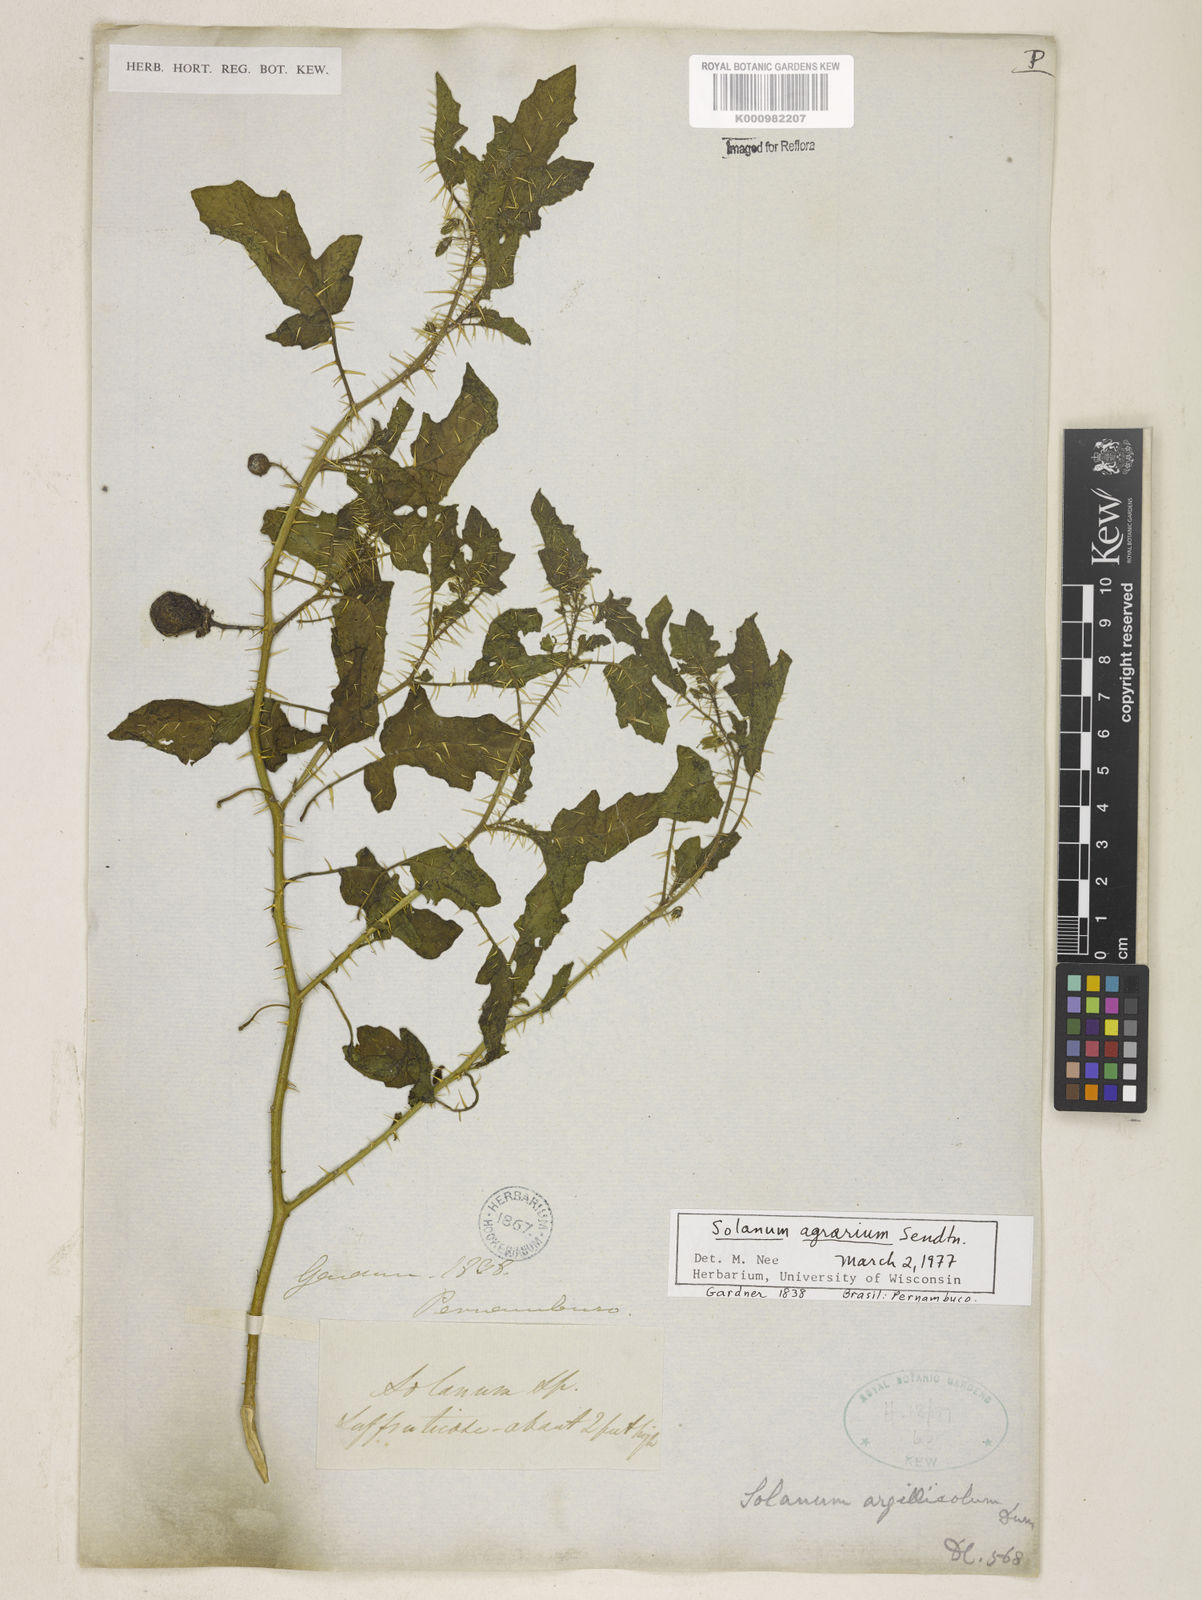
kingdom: Plantae
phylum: Tracheophyta
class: Magnoliopsida
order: Solanales
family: Solanaceae
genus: Solanum
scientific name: Solanum agrarium
